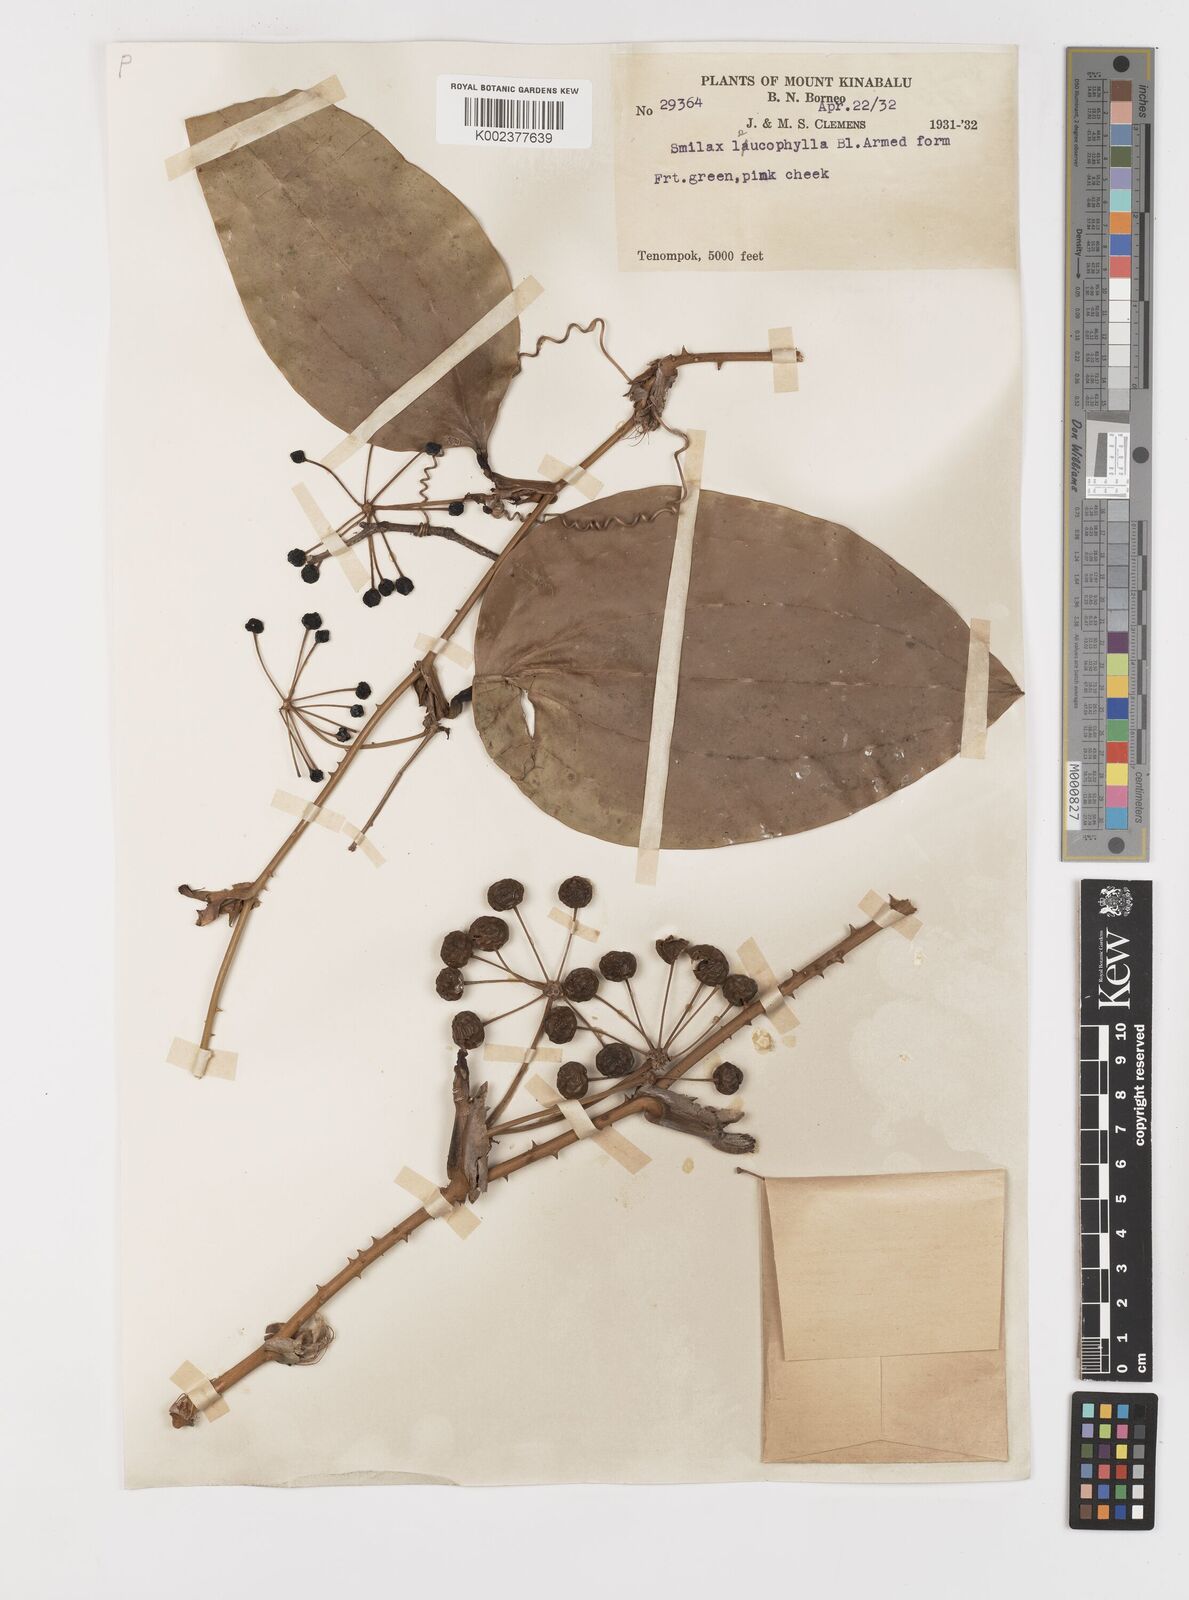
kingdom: Plantae
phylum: Tracheophyta
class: Liliopsida
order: Liliales
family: Smilacaceae
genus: Smilax
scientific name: Smilax leucophylla
